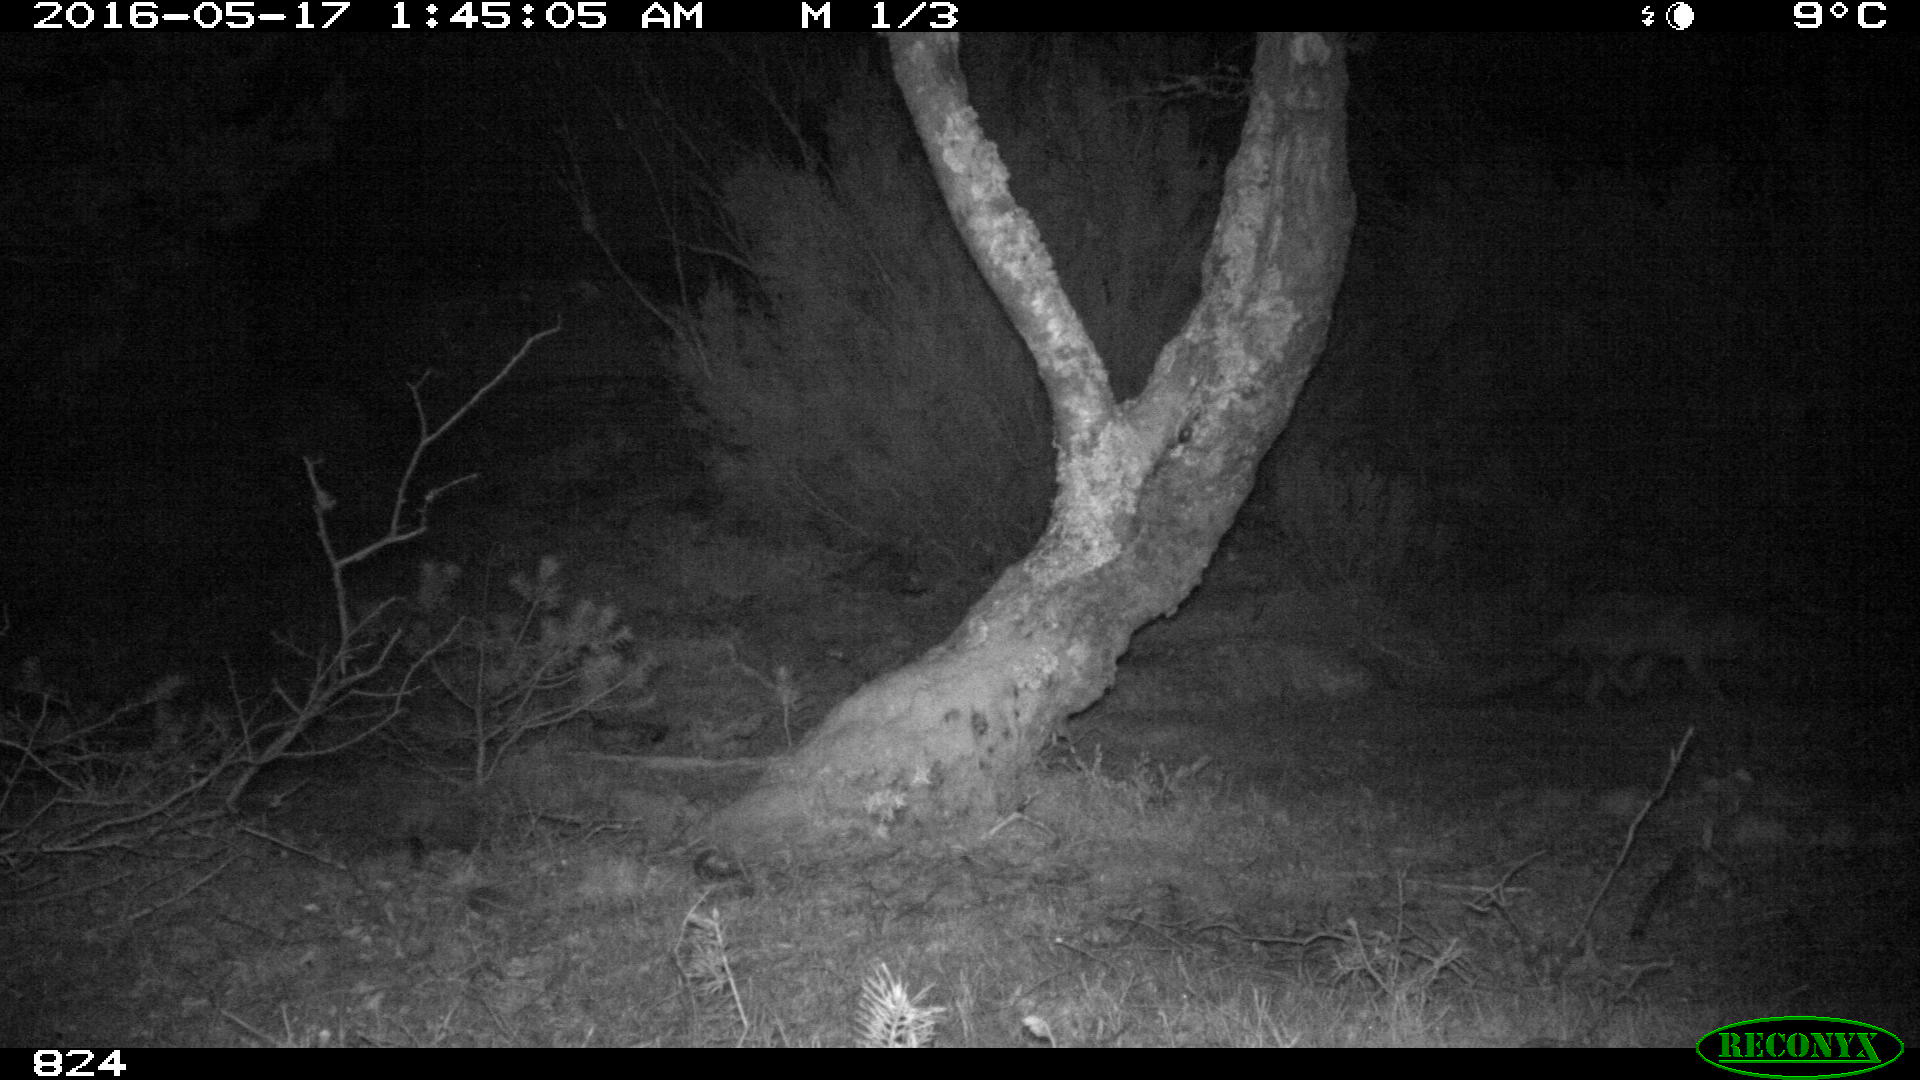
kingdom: Animalia
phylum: Chordata
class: Mammalia
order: Carnivora
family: Canidae
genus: Vulpes
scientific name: Vulpes vulpes
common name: Red fox
